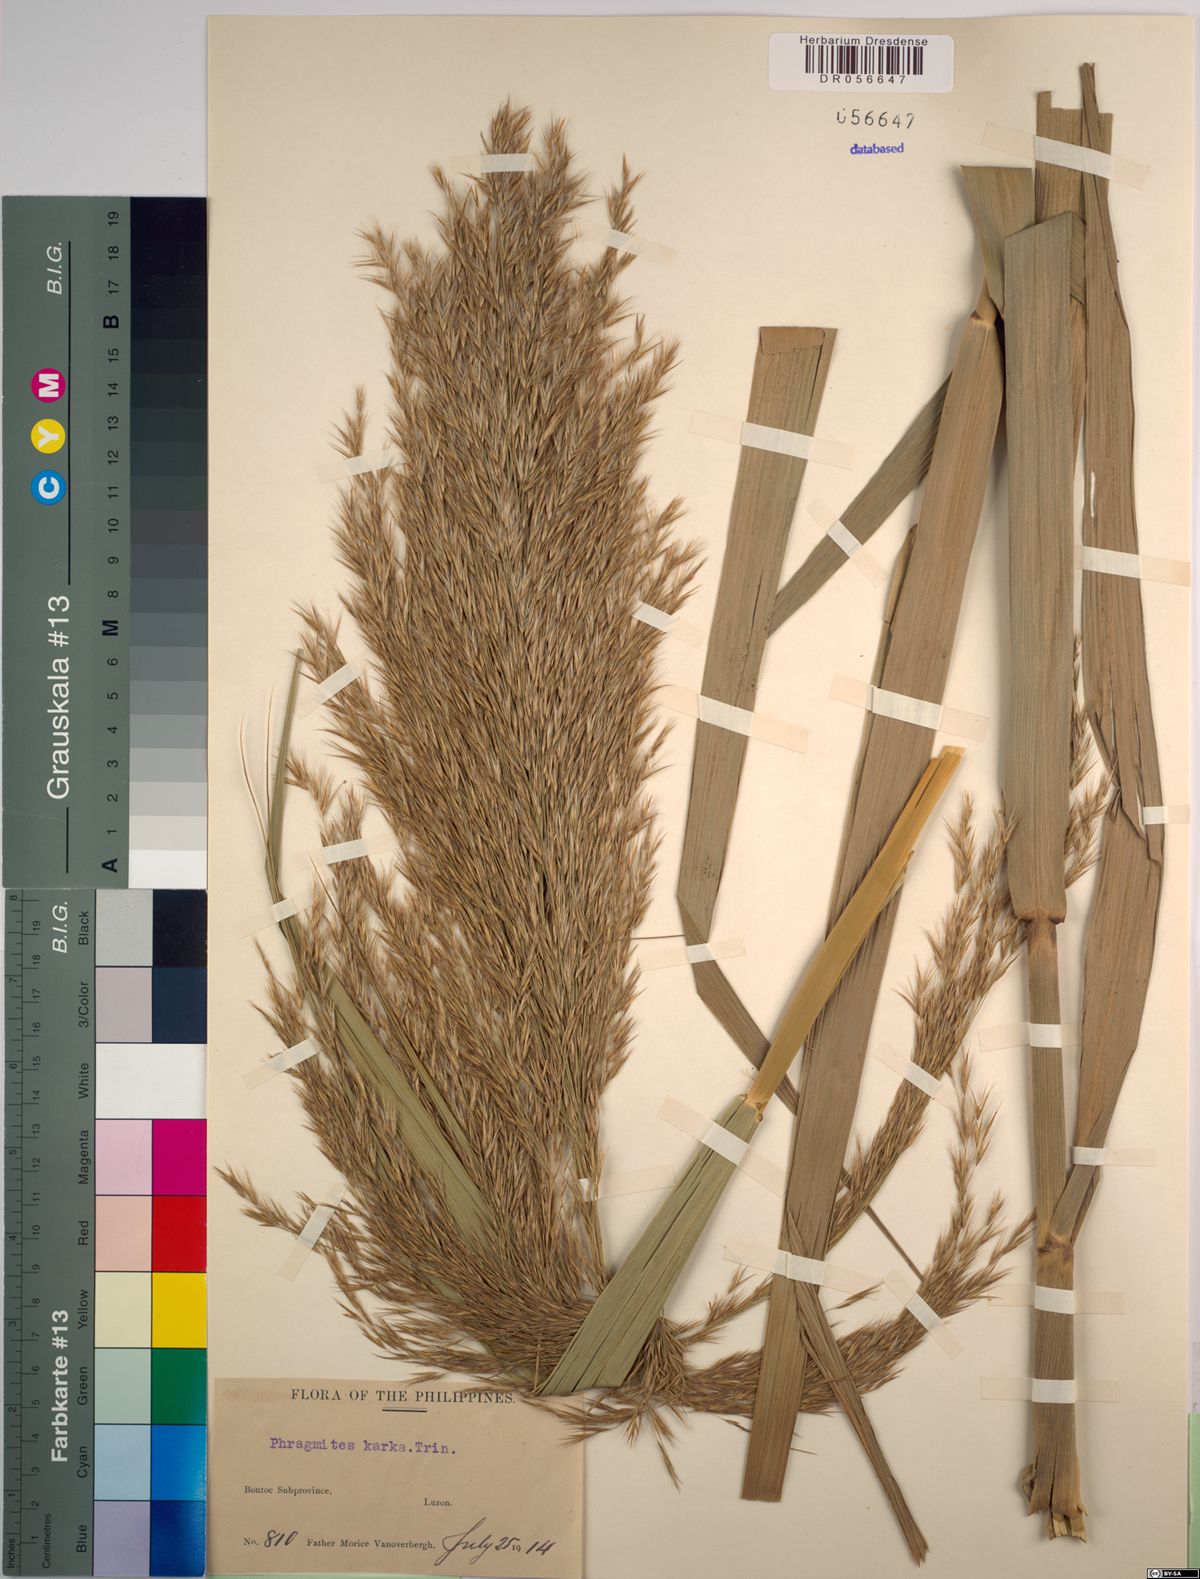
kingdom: Plantae
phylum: Tracheophyta
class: Liliopsida
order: Poales
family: Poaceae
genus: Phragmites
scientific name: Phragmites karka
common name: Tropical reed
